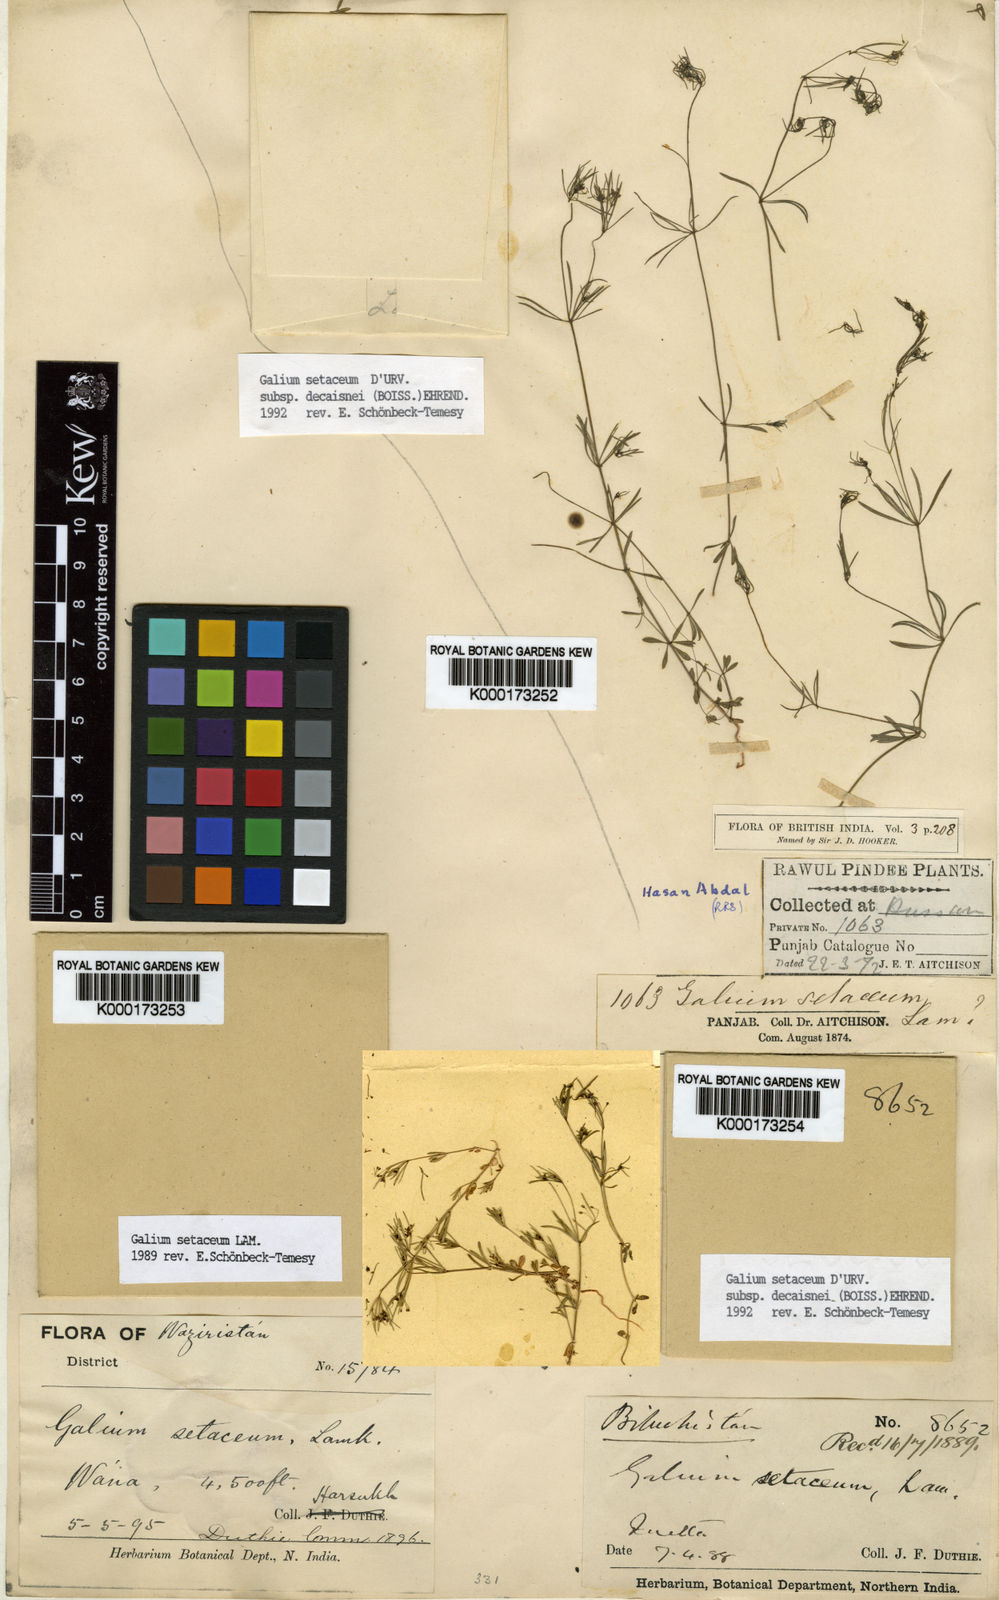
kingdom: Plantae
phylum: Tracheophyta
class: Magnoliopsida
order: Gentianales
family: Rubiaceae
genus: Galium
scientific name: Galium setaceum
